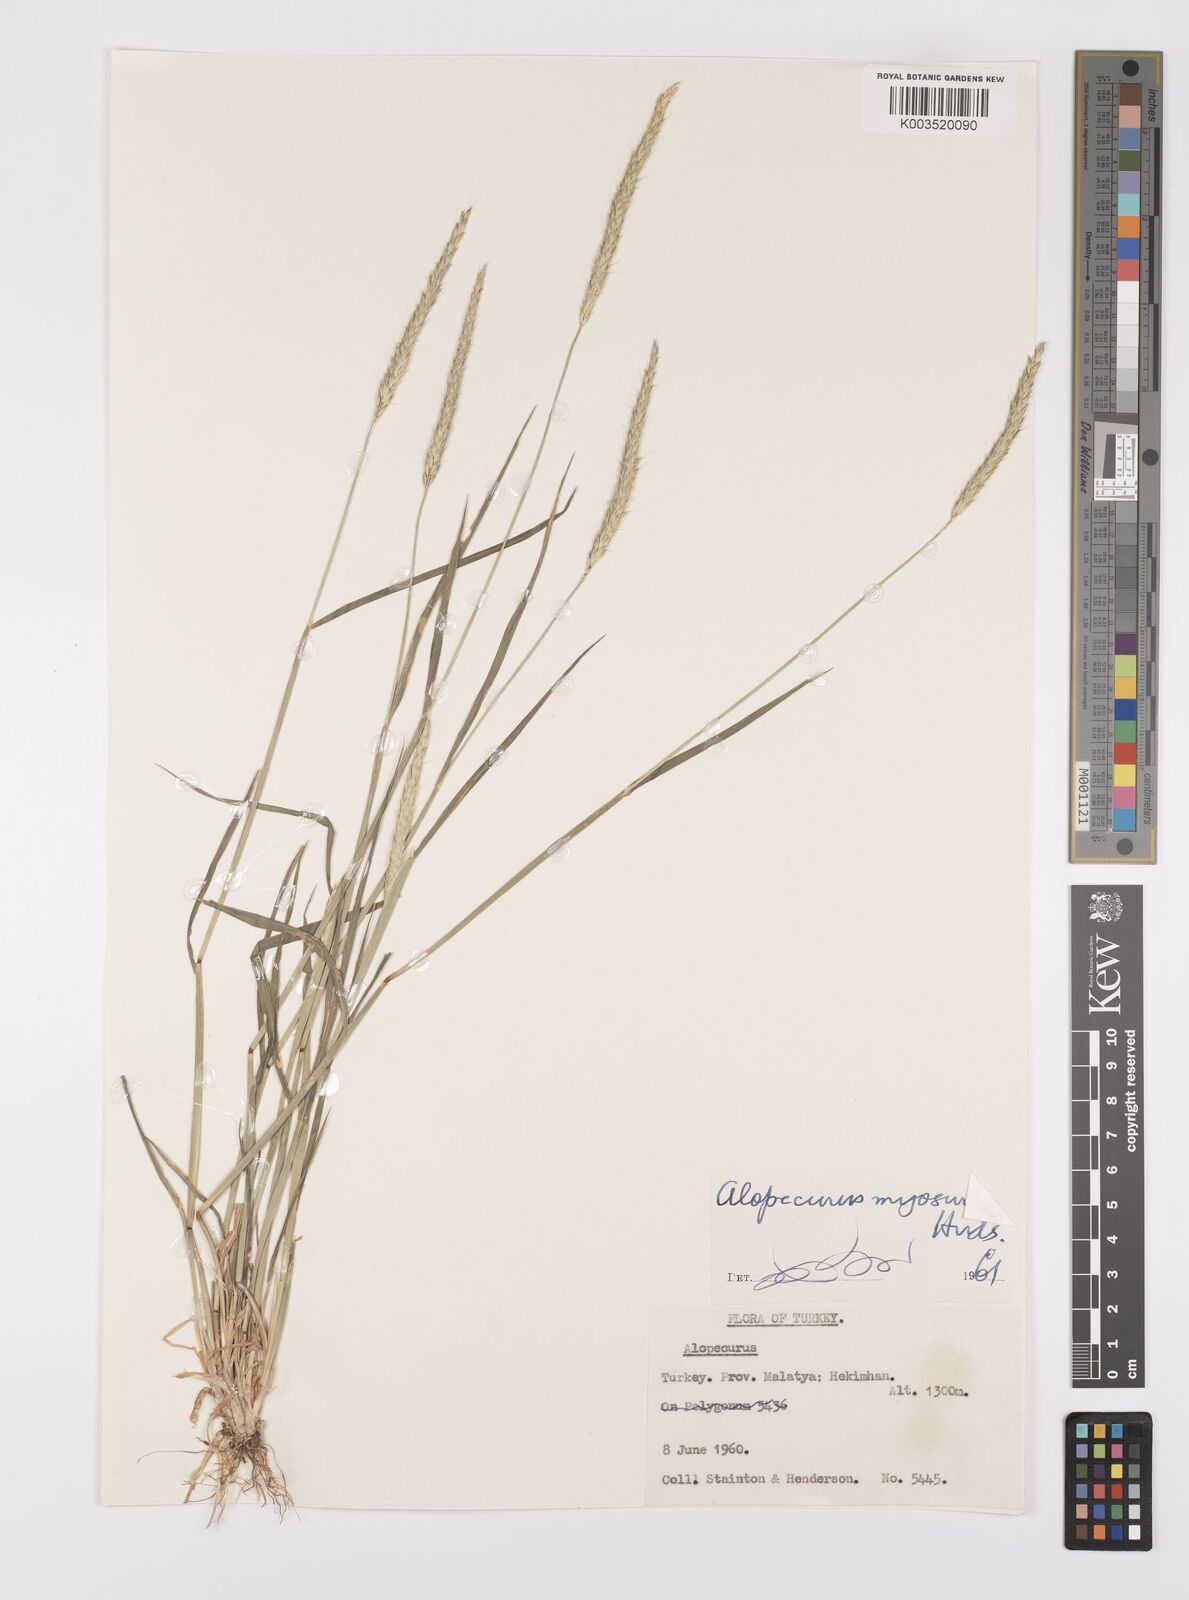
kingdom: Plantae
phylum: Tracheophyta
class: Liliopsida
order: Poales
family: Poaceae
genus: Alopecurus
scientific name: Alopecurus myosuroides
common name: Black-grass
